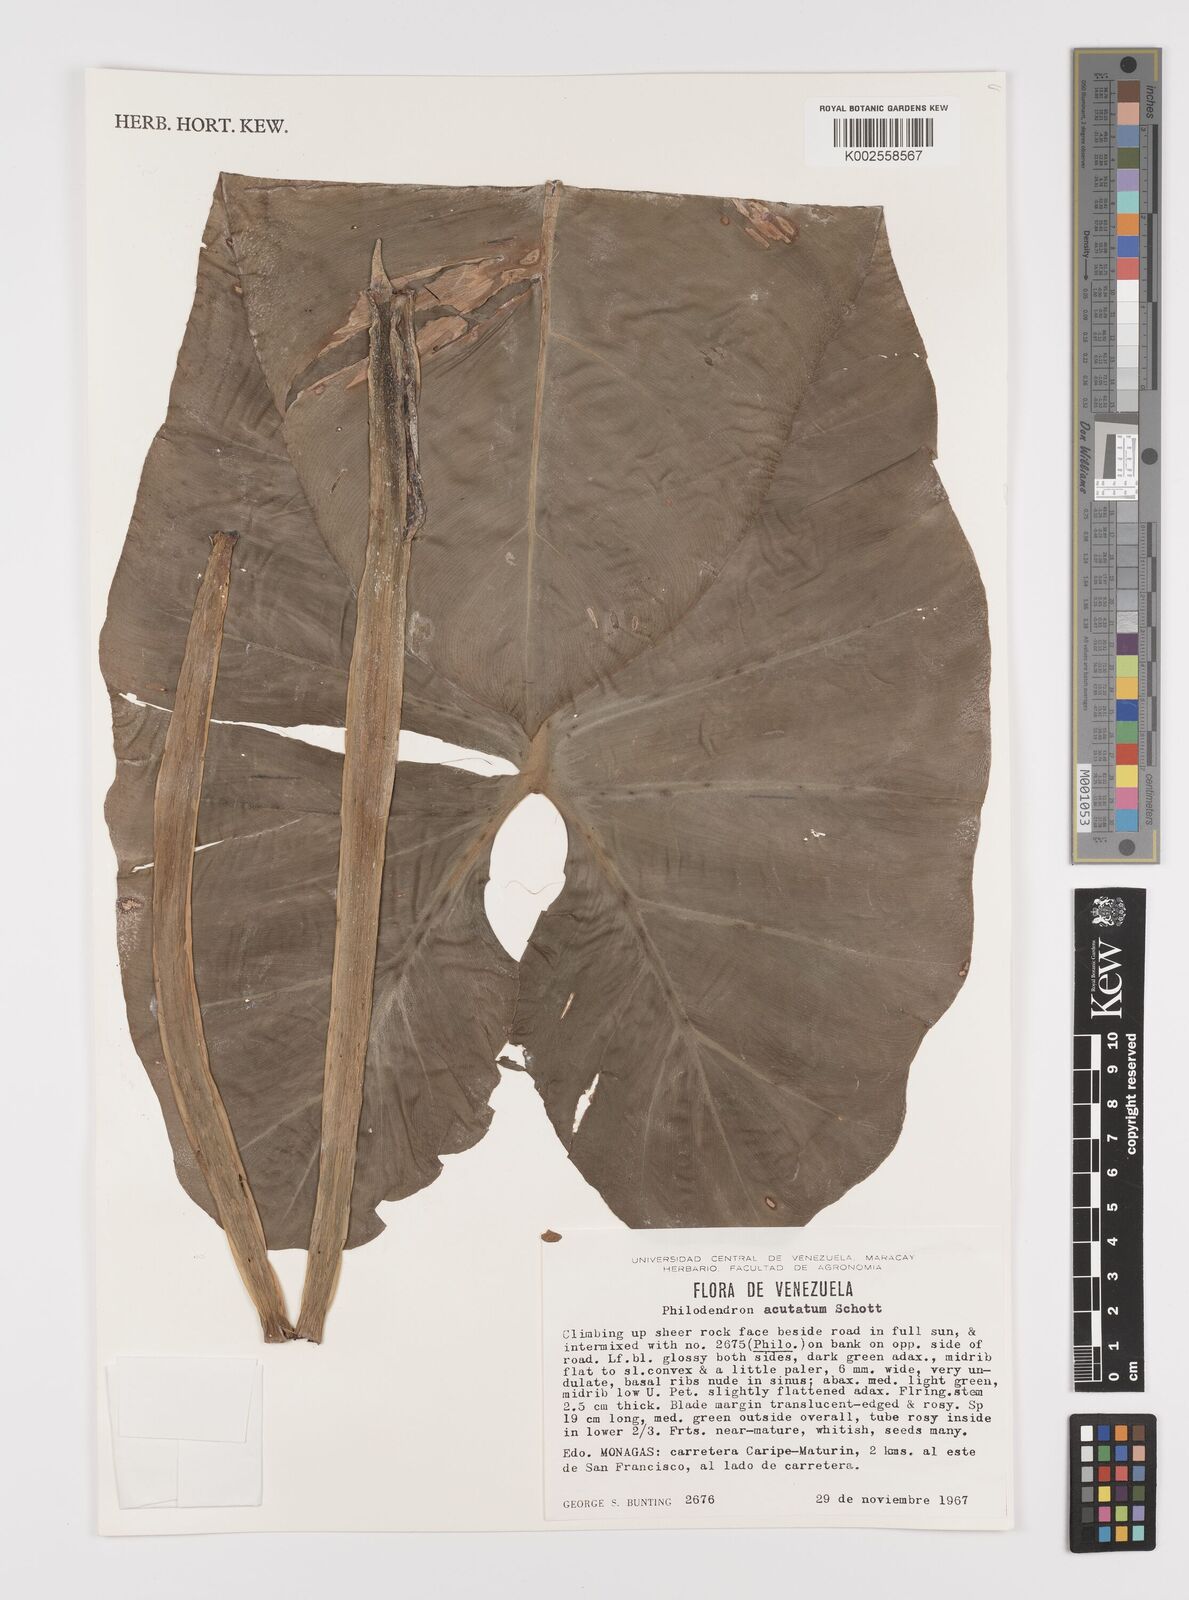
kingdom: Plantae
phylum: Tracheophyta
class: Liliopsida
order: Alismatales
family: Araceae
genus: Philodendron
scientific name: Philodendron quinquenervium
